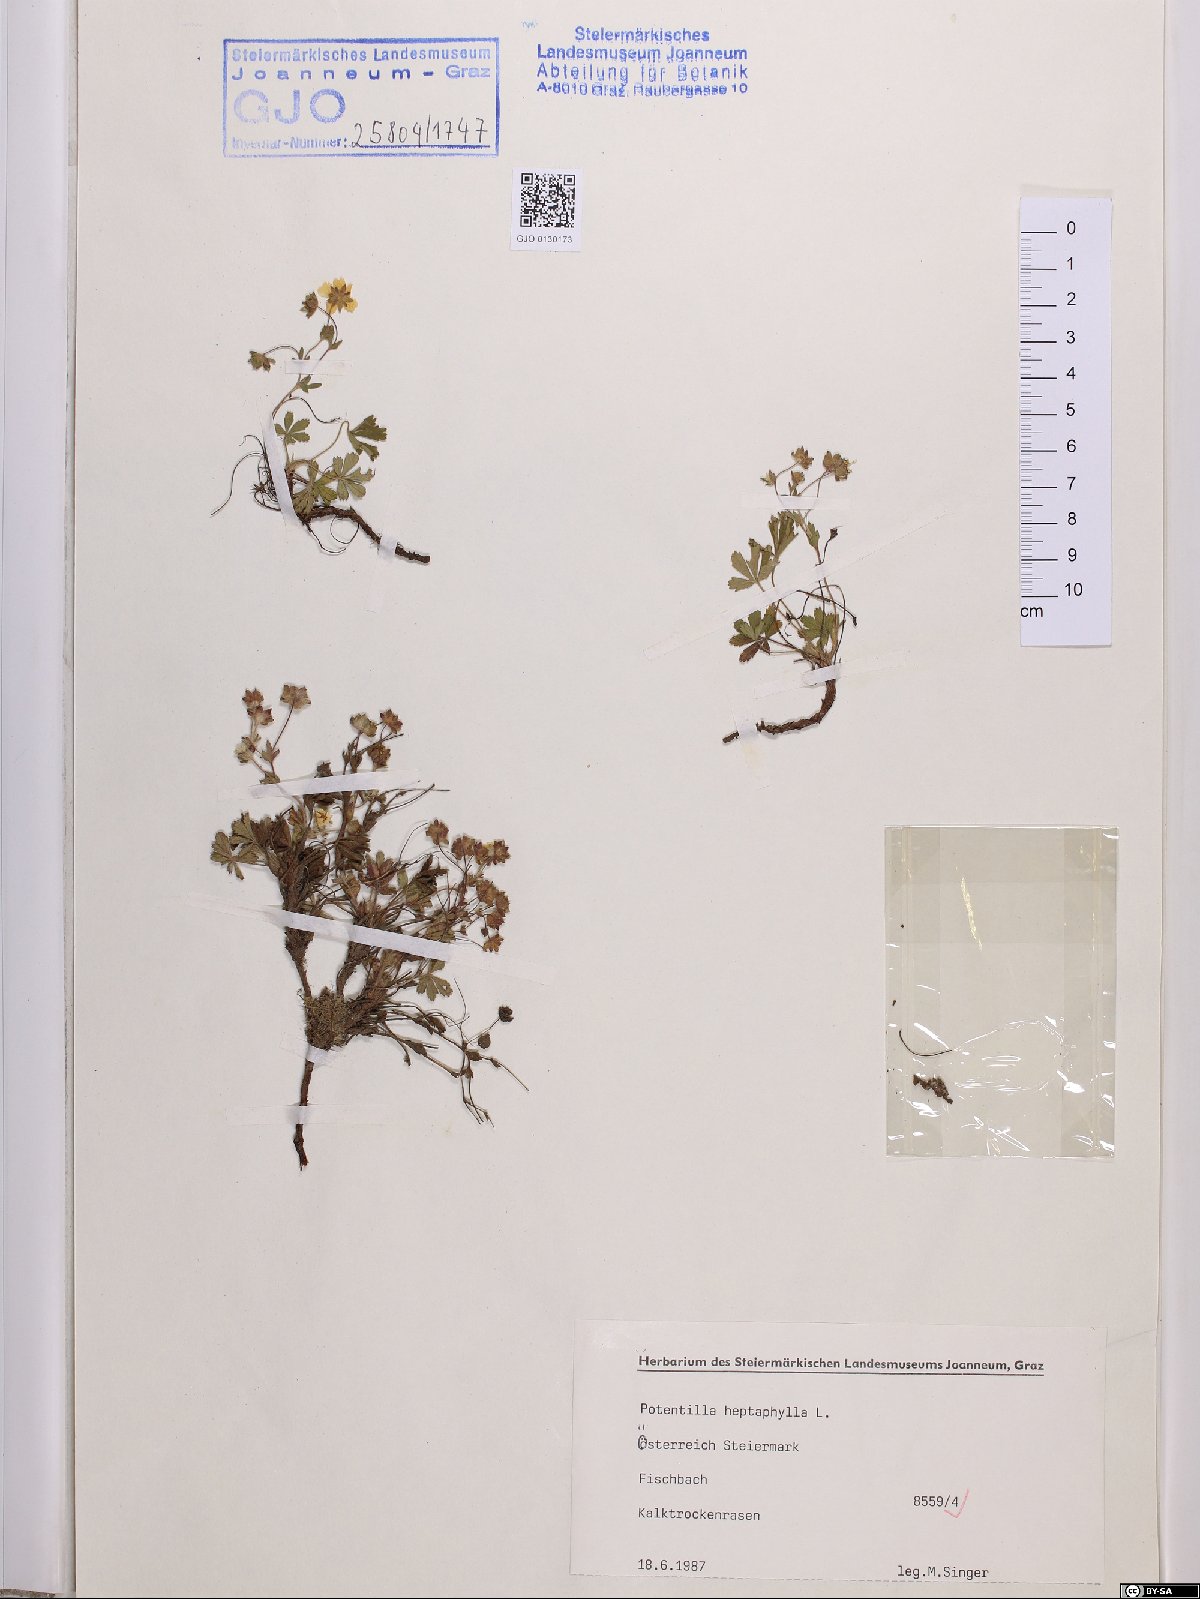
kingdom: Plantae
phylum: Tracheophyta
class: Magnoliopsida
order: Rosales
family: Rosaceae
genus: Potentilla
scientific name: Potentilla heptaphylla
